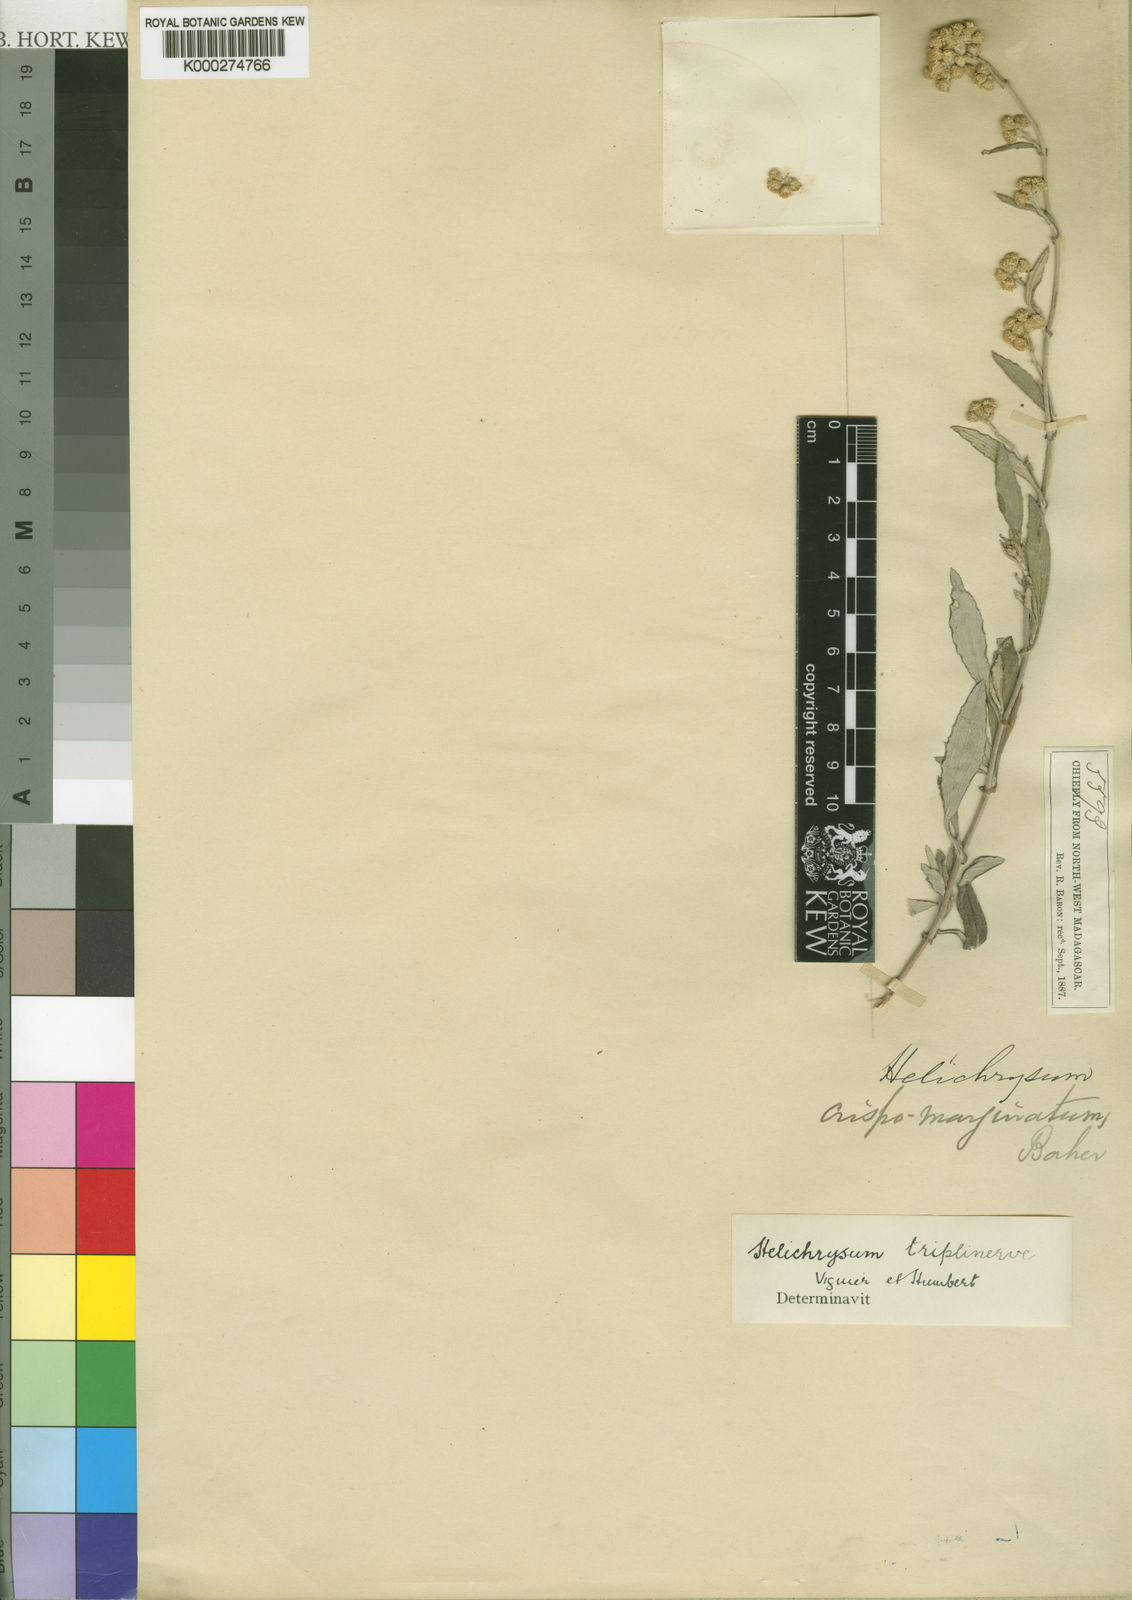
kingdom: Plantae
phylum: Tracheophyta
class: Magnoliopsida
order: Asterales
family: Asteraceae
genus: Helichrysum
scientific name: Helichrysum triplinerve
